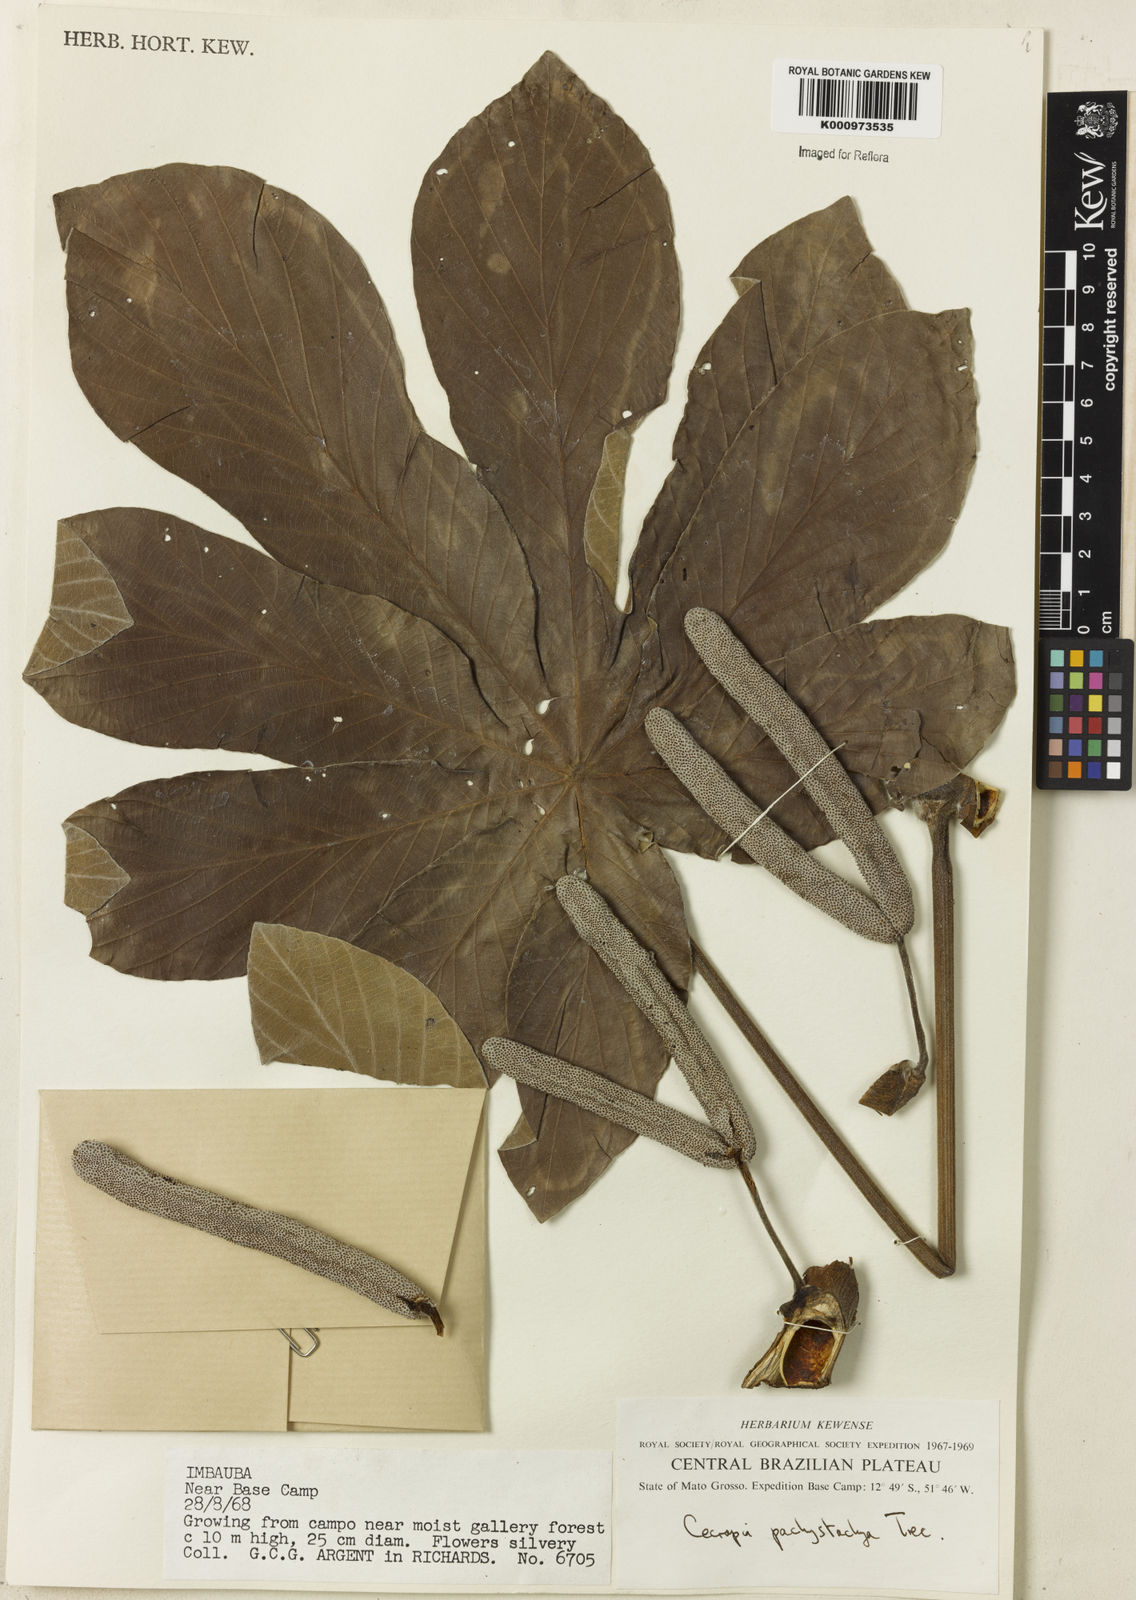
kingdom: Plantae
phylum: Tracheophyta
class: Magnoliopsida
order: Rosales
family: Urticaceae
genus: Cecropia
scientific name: Cecropia
